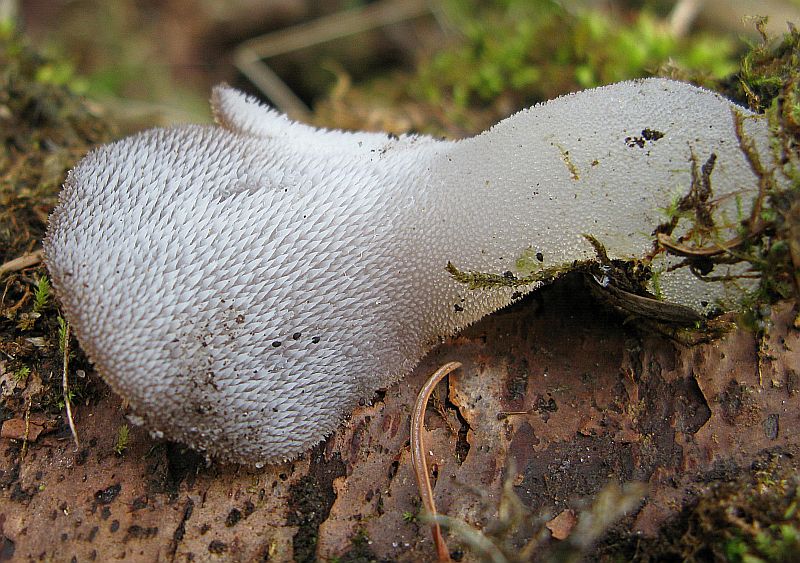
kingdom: Fungi
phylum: Basidiomycota
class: Tremellomycetes
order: Tremellales
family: Exidiaceae
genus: Pseudohydnum
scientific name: Pseudohydnum
